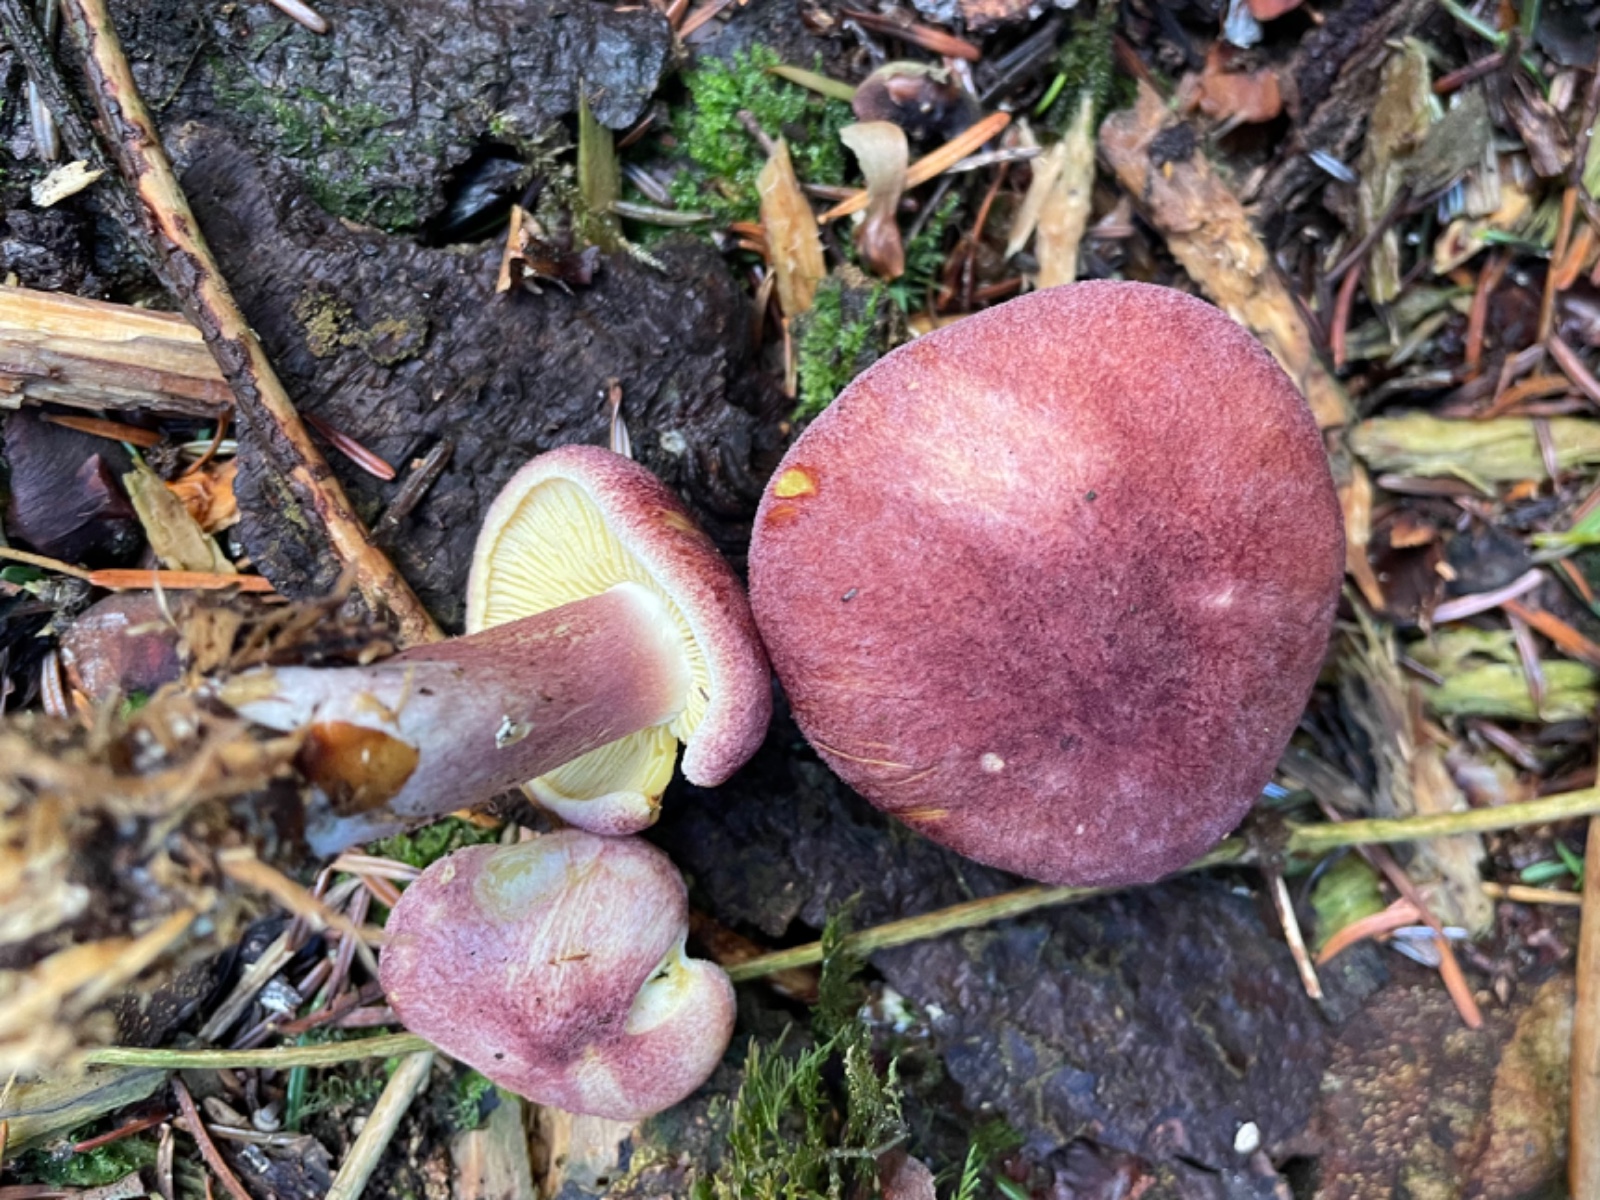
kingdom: Fungi
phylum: Basidiomycota
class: Agaricomycetes
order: Agaricales
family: Tricholomataceae
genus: Tricholomopsis
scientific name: Tricholomopsis rutilans
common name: purpur-væbnerhat
